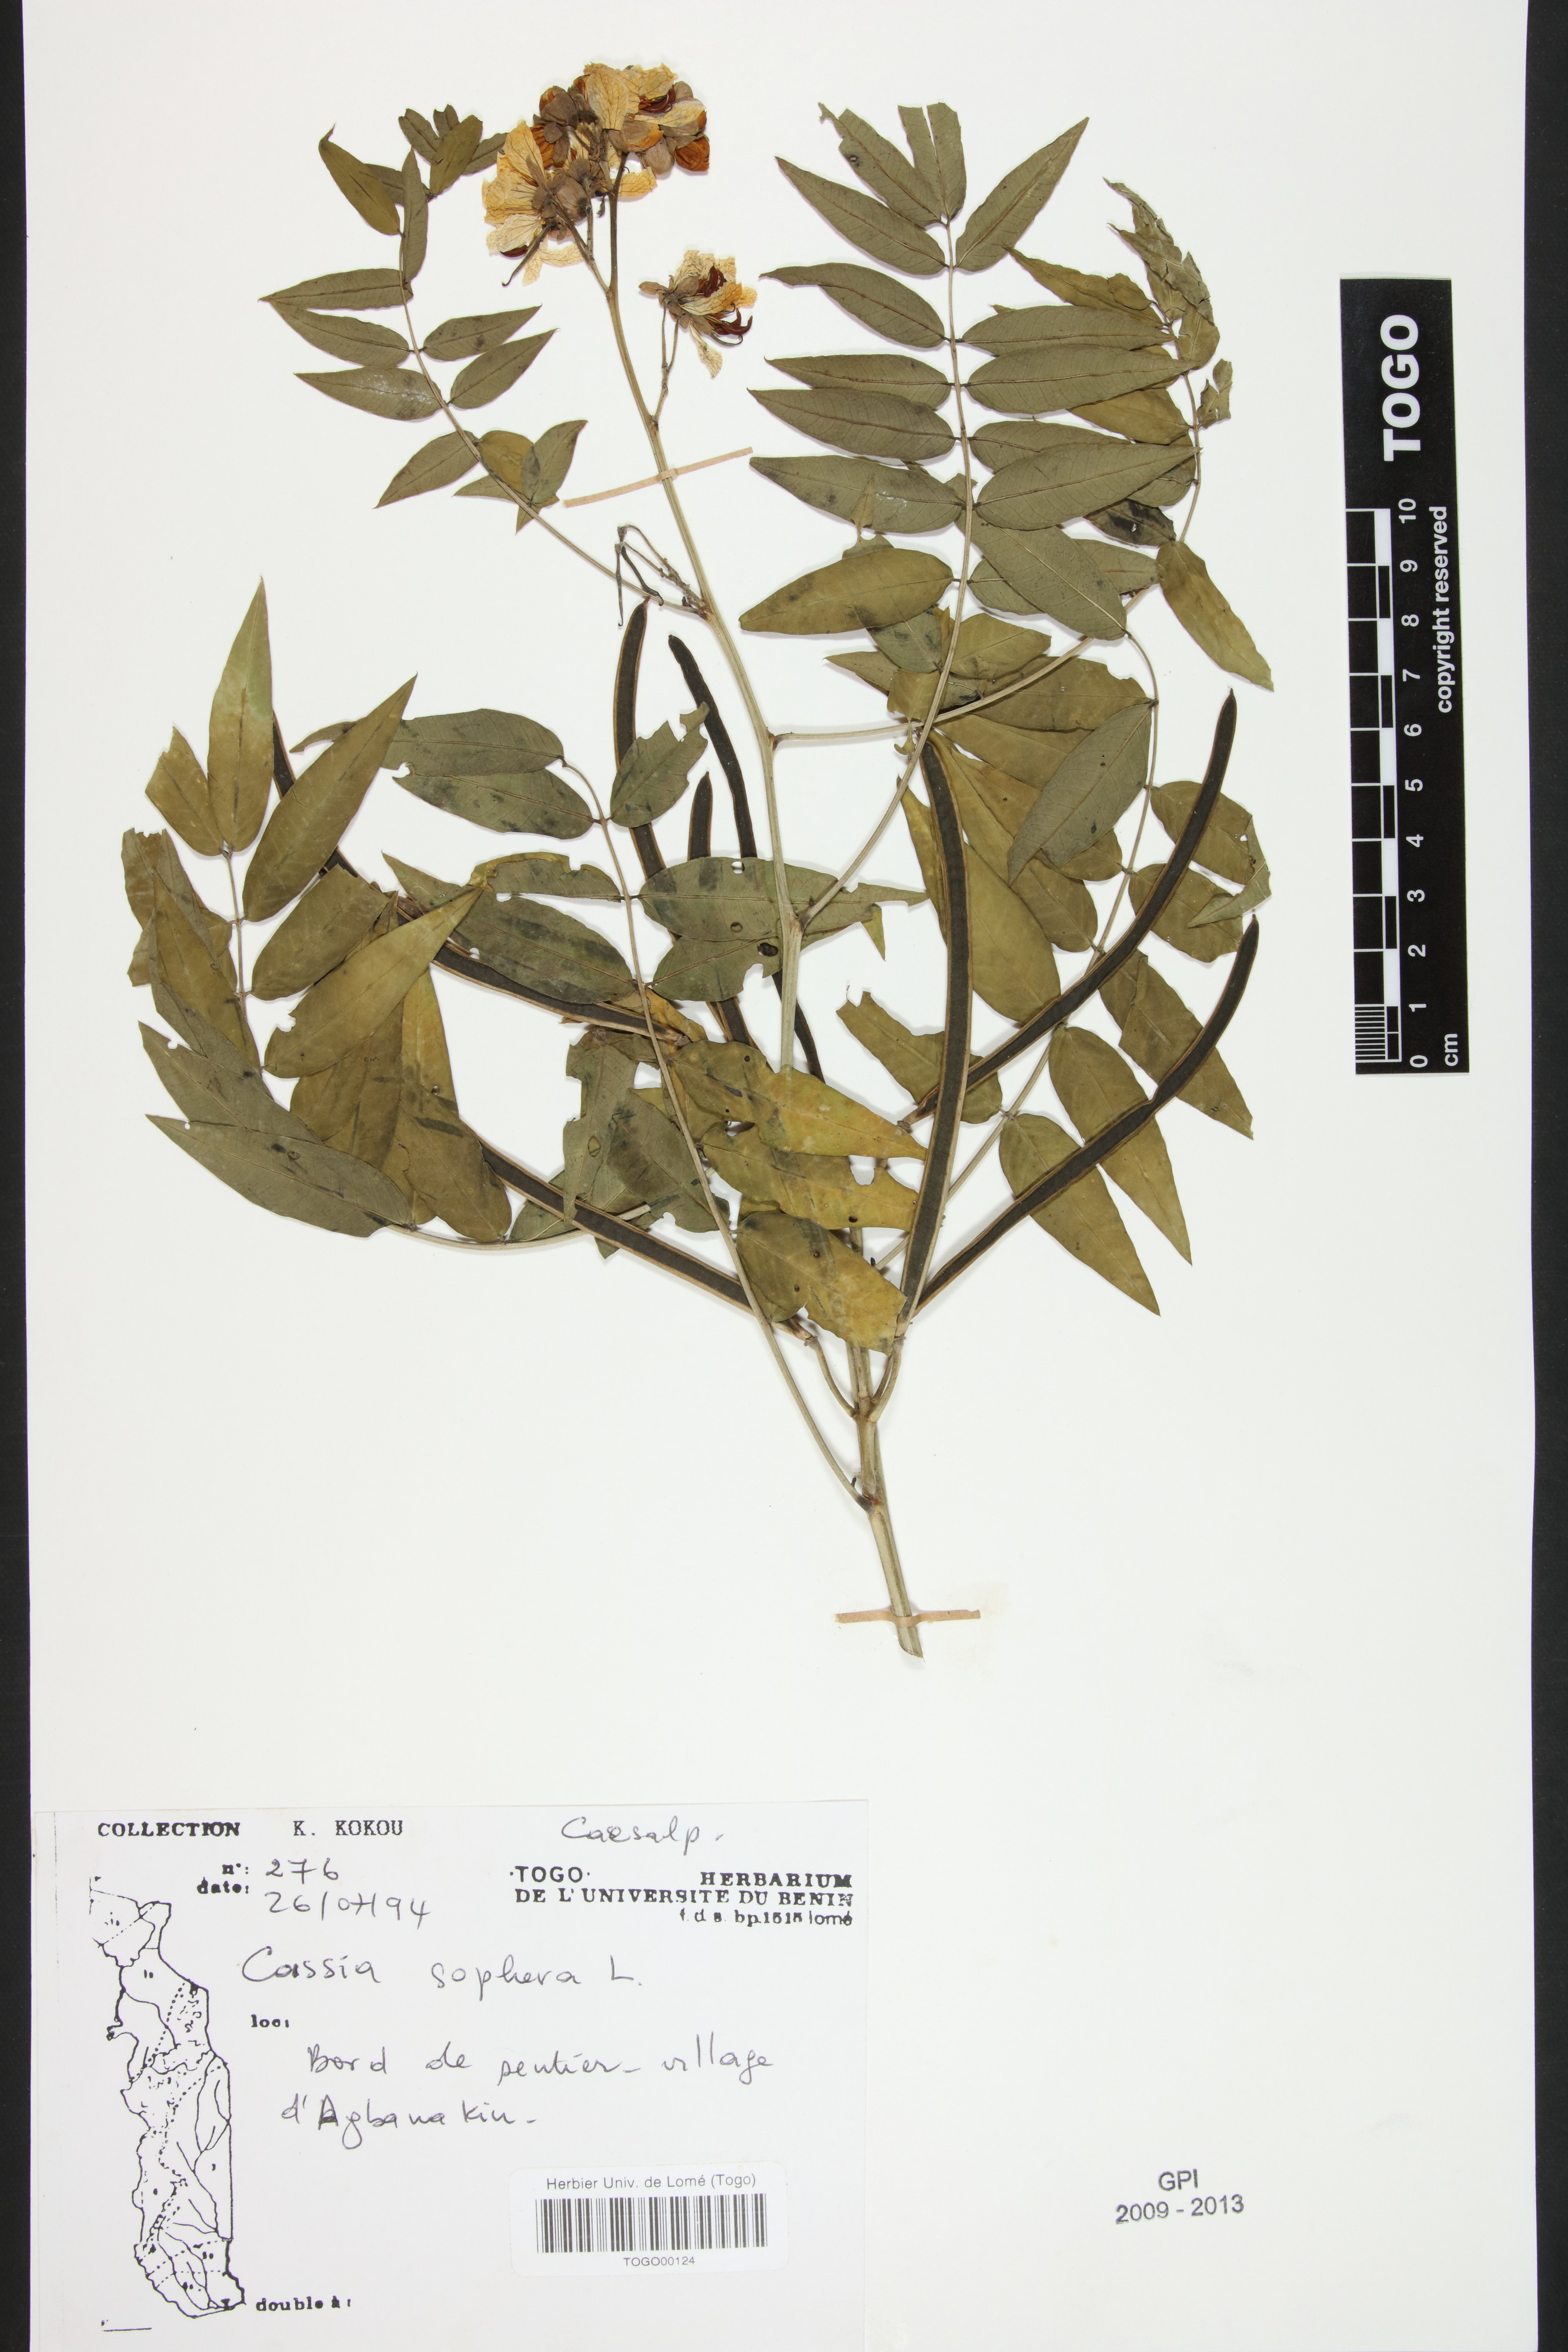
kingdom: Plantae
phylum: Tracheophyta
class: Magnoliopsida
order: Fabales
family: Fabaceae
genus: Senna
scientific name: Senna sophera
